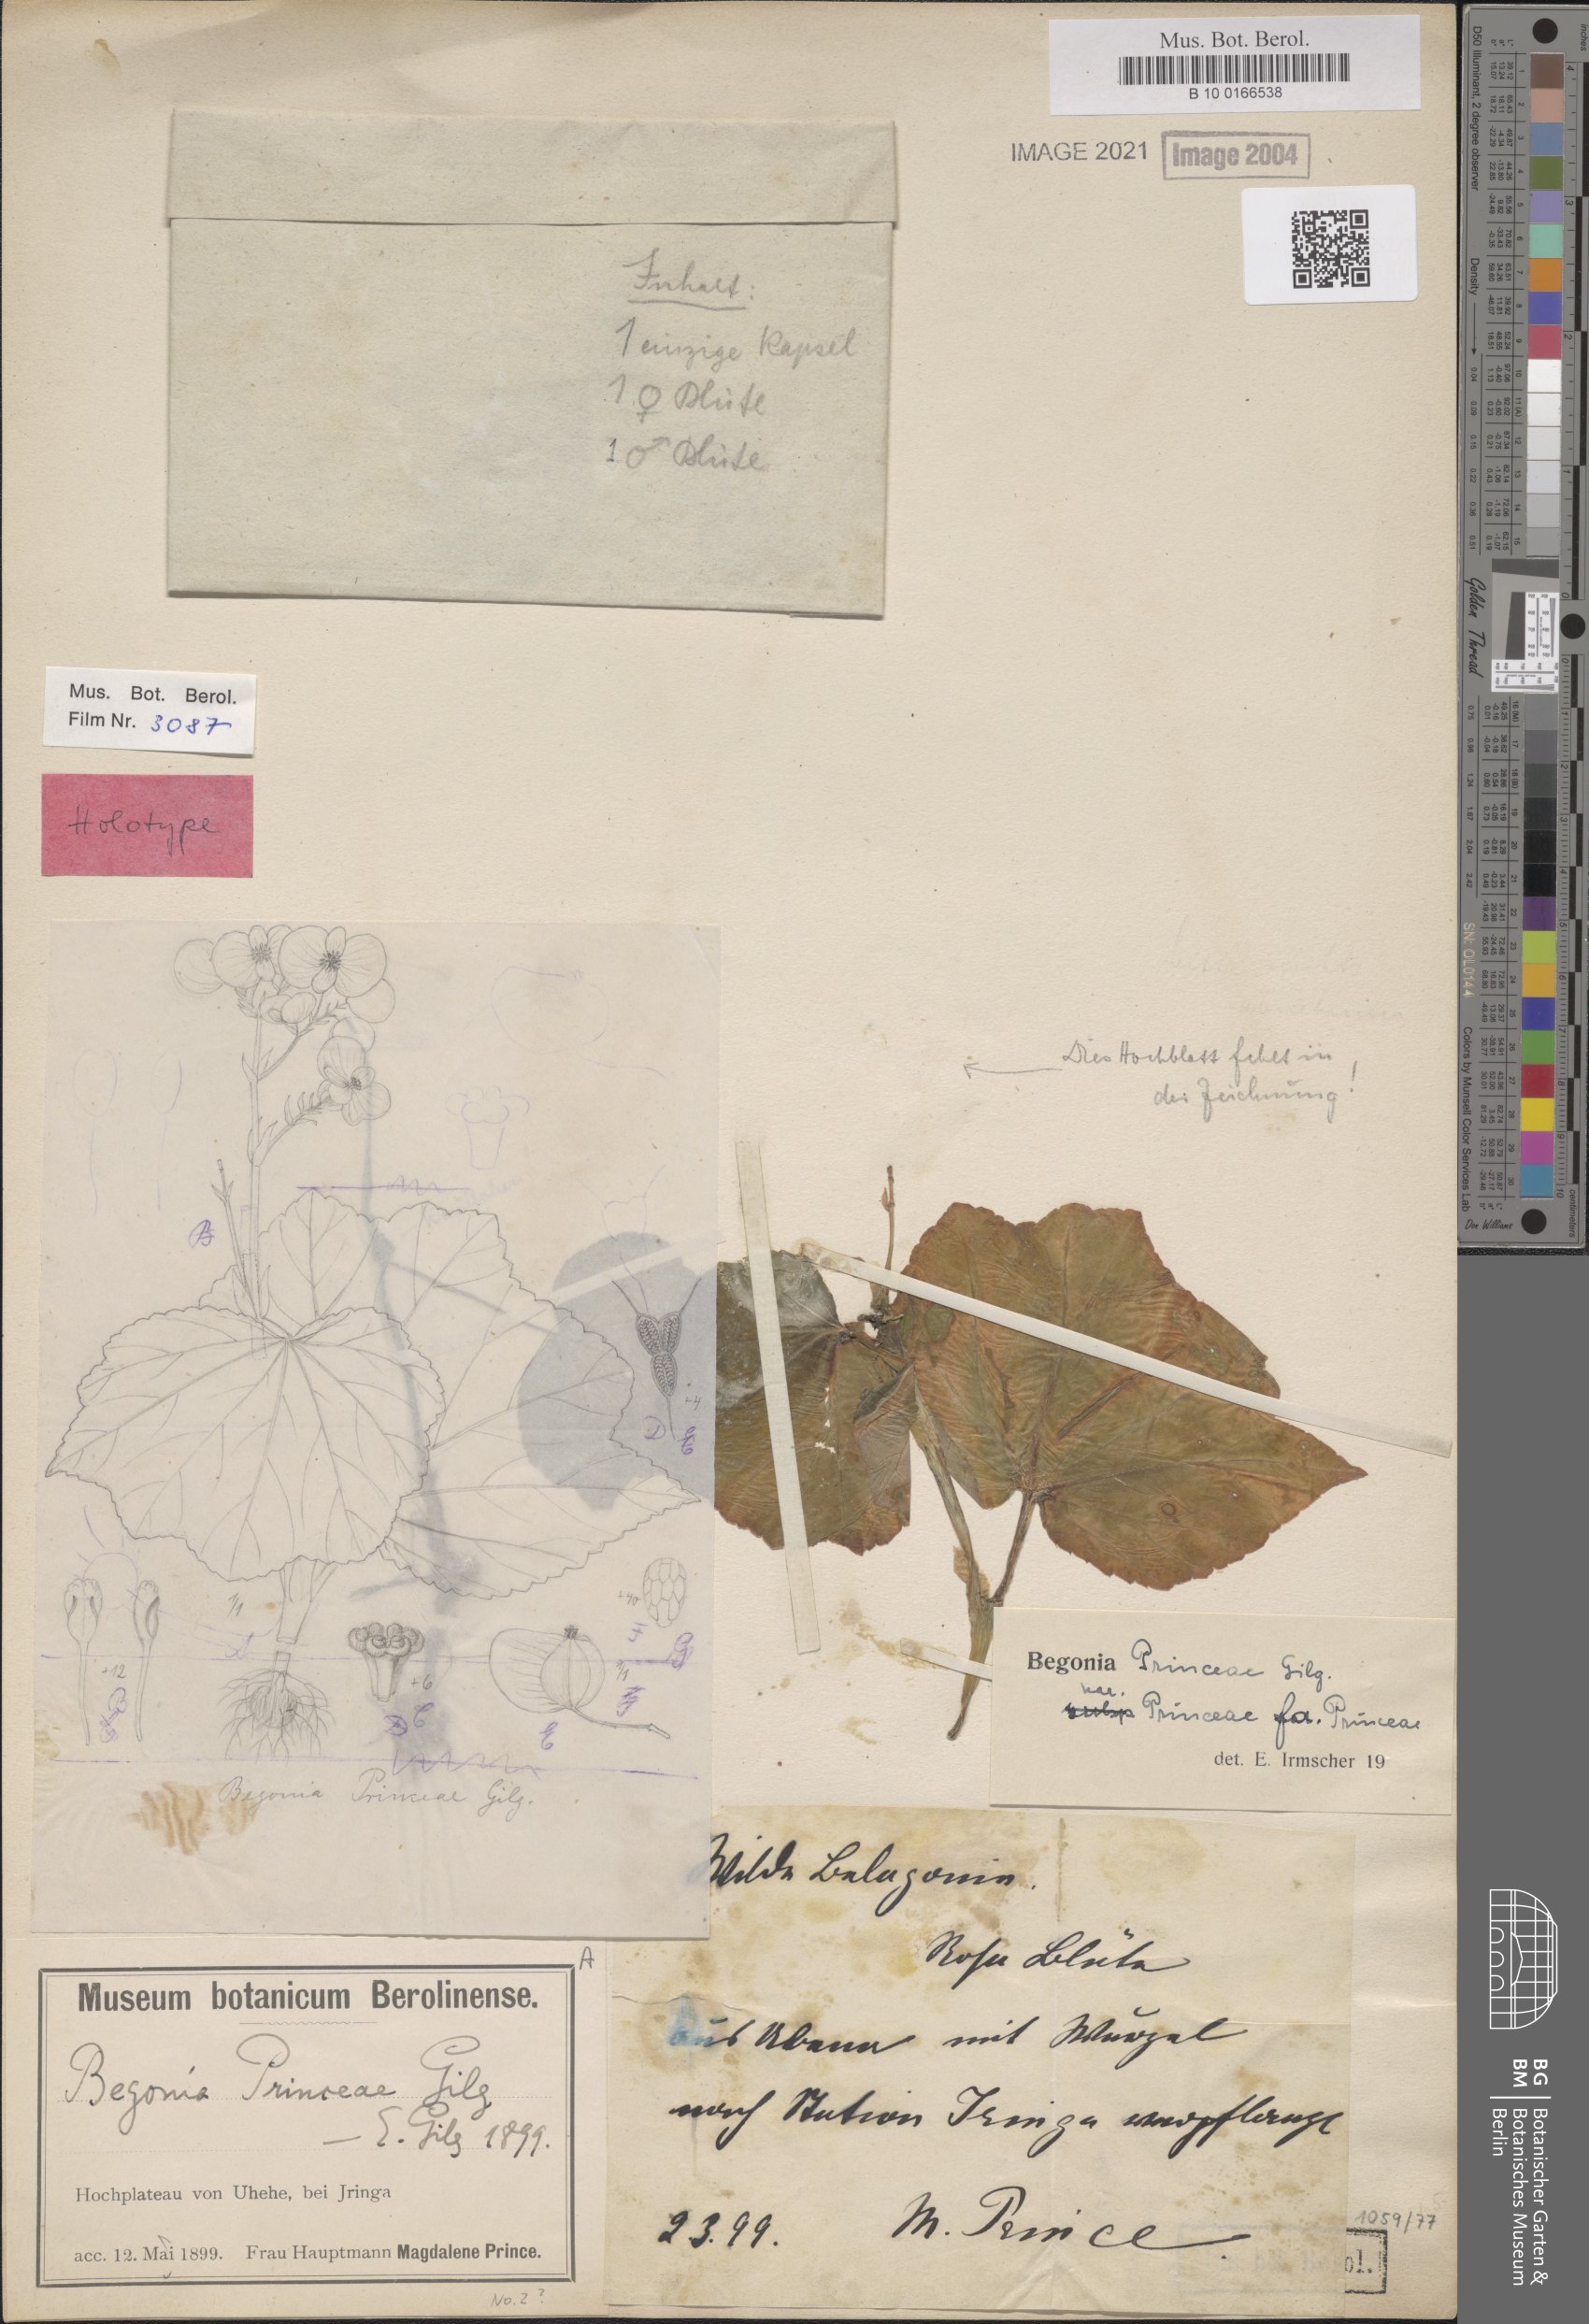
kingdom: Plantae
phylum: Tracheophyta
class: Magnoliopsida
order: Cucurbitales
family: Begoniaceae
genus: Begonia
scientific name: Begonia princeae
